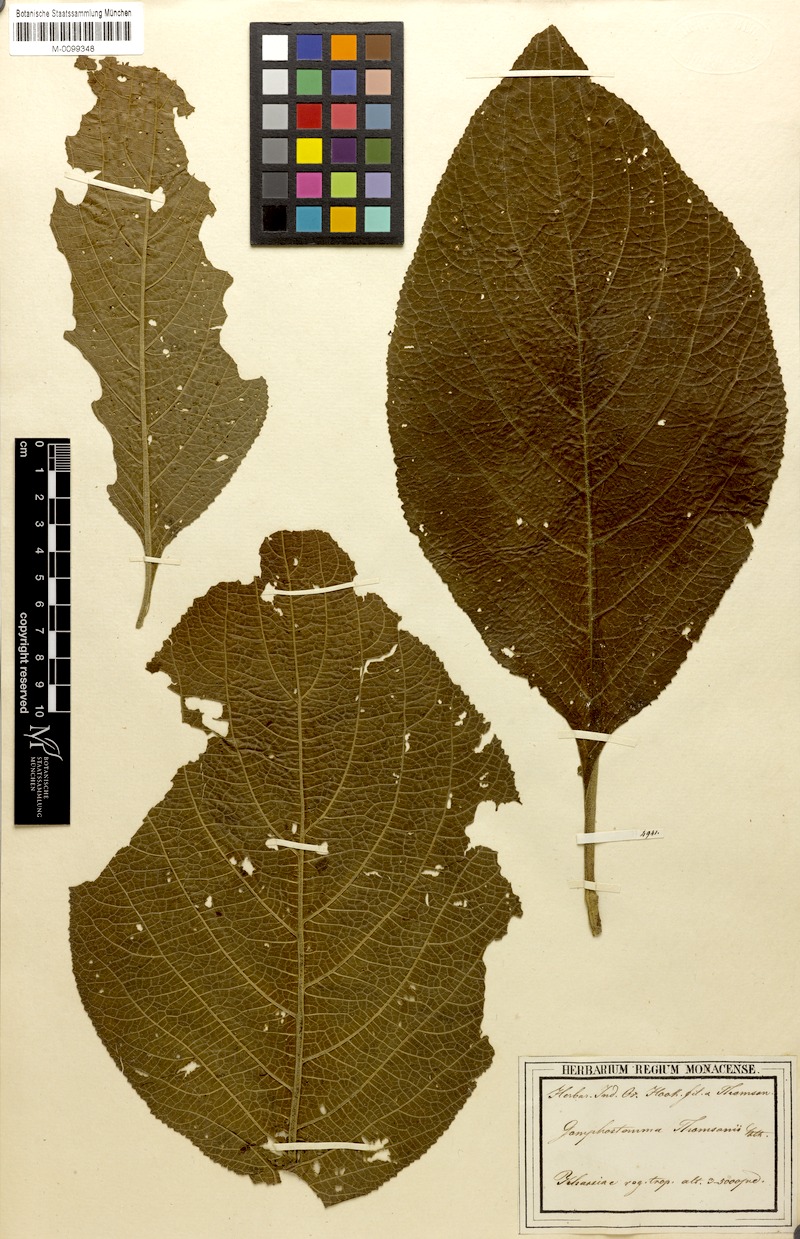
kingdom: Plantae
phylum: Tracheophyta
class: Magnoliopsida
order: Lamiales
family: Lamiaceae
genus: Gomphostemma
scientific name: Gomphostemma thomsonii
